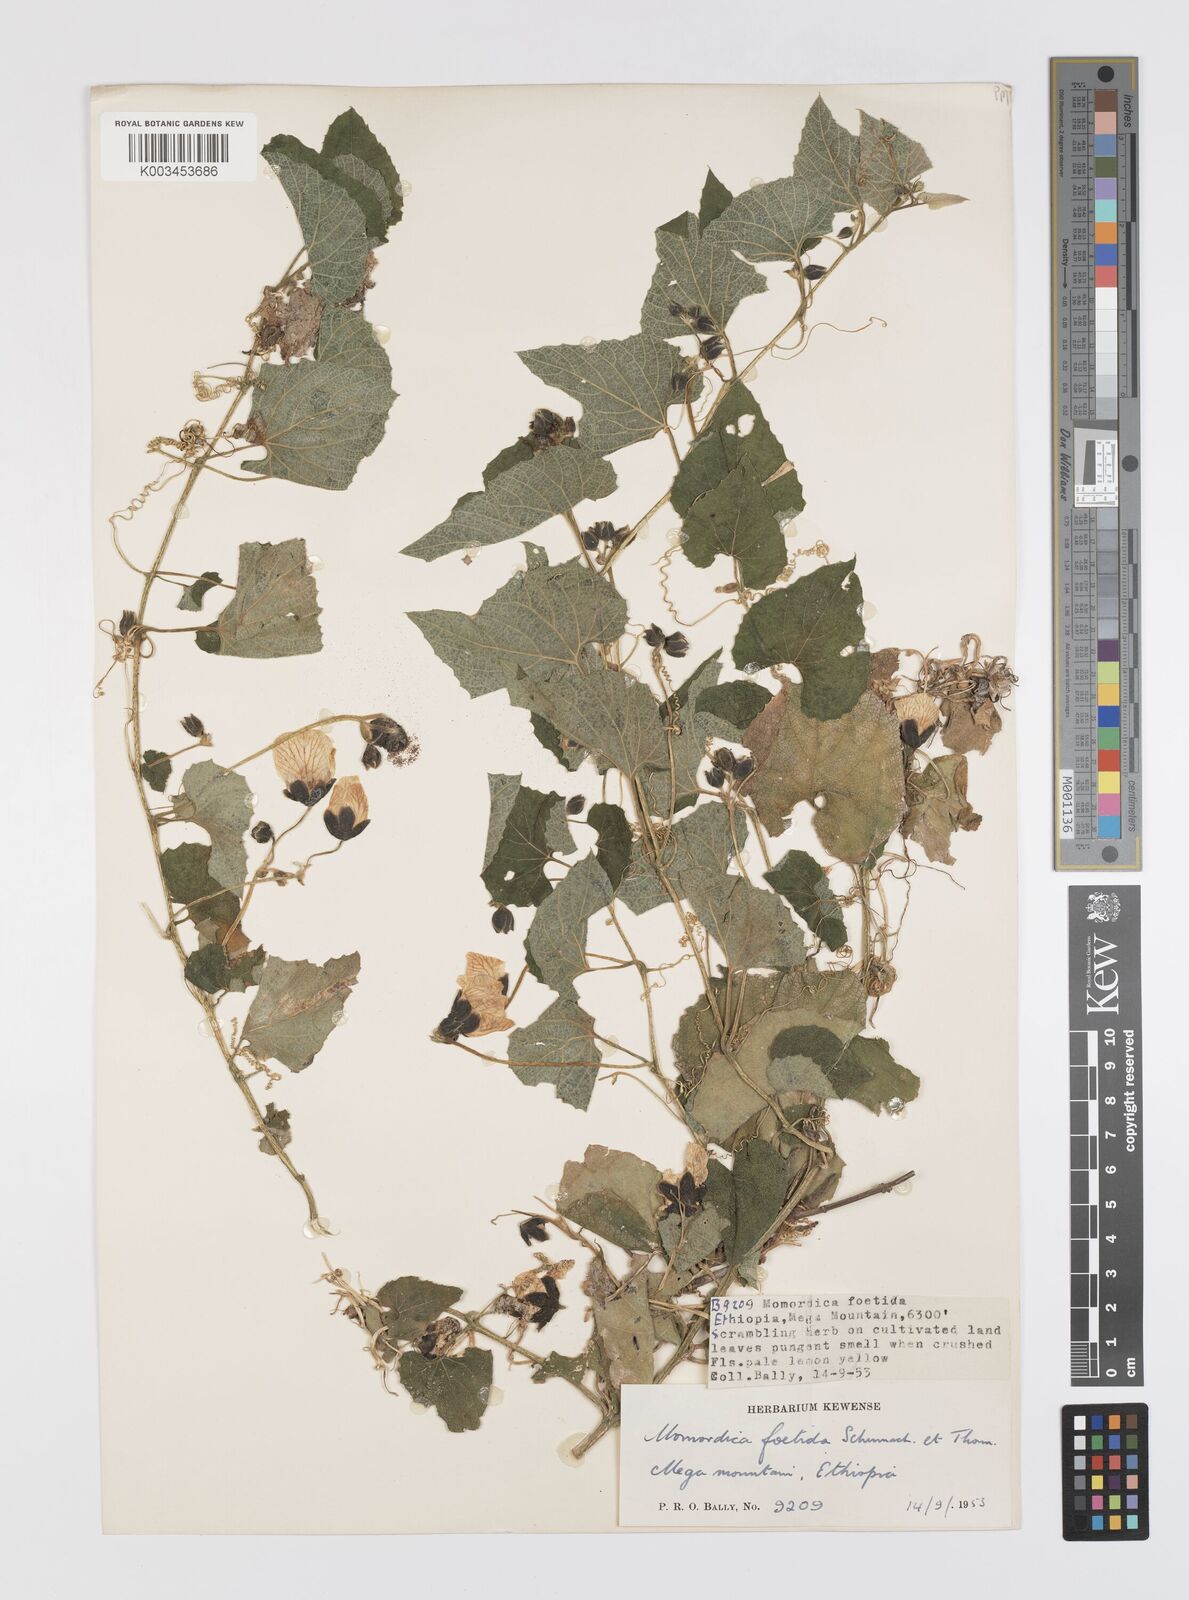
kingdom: Plantae
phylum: Tracheophyta
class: Magnoliopsida
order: Cucurbitales
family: Cucurbitaceae
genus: Momordica
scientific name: Momordica foetida
